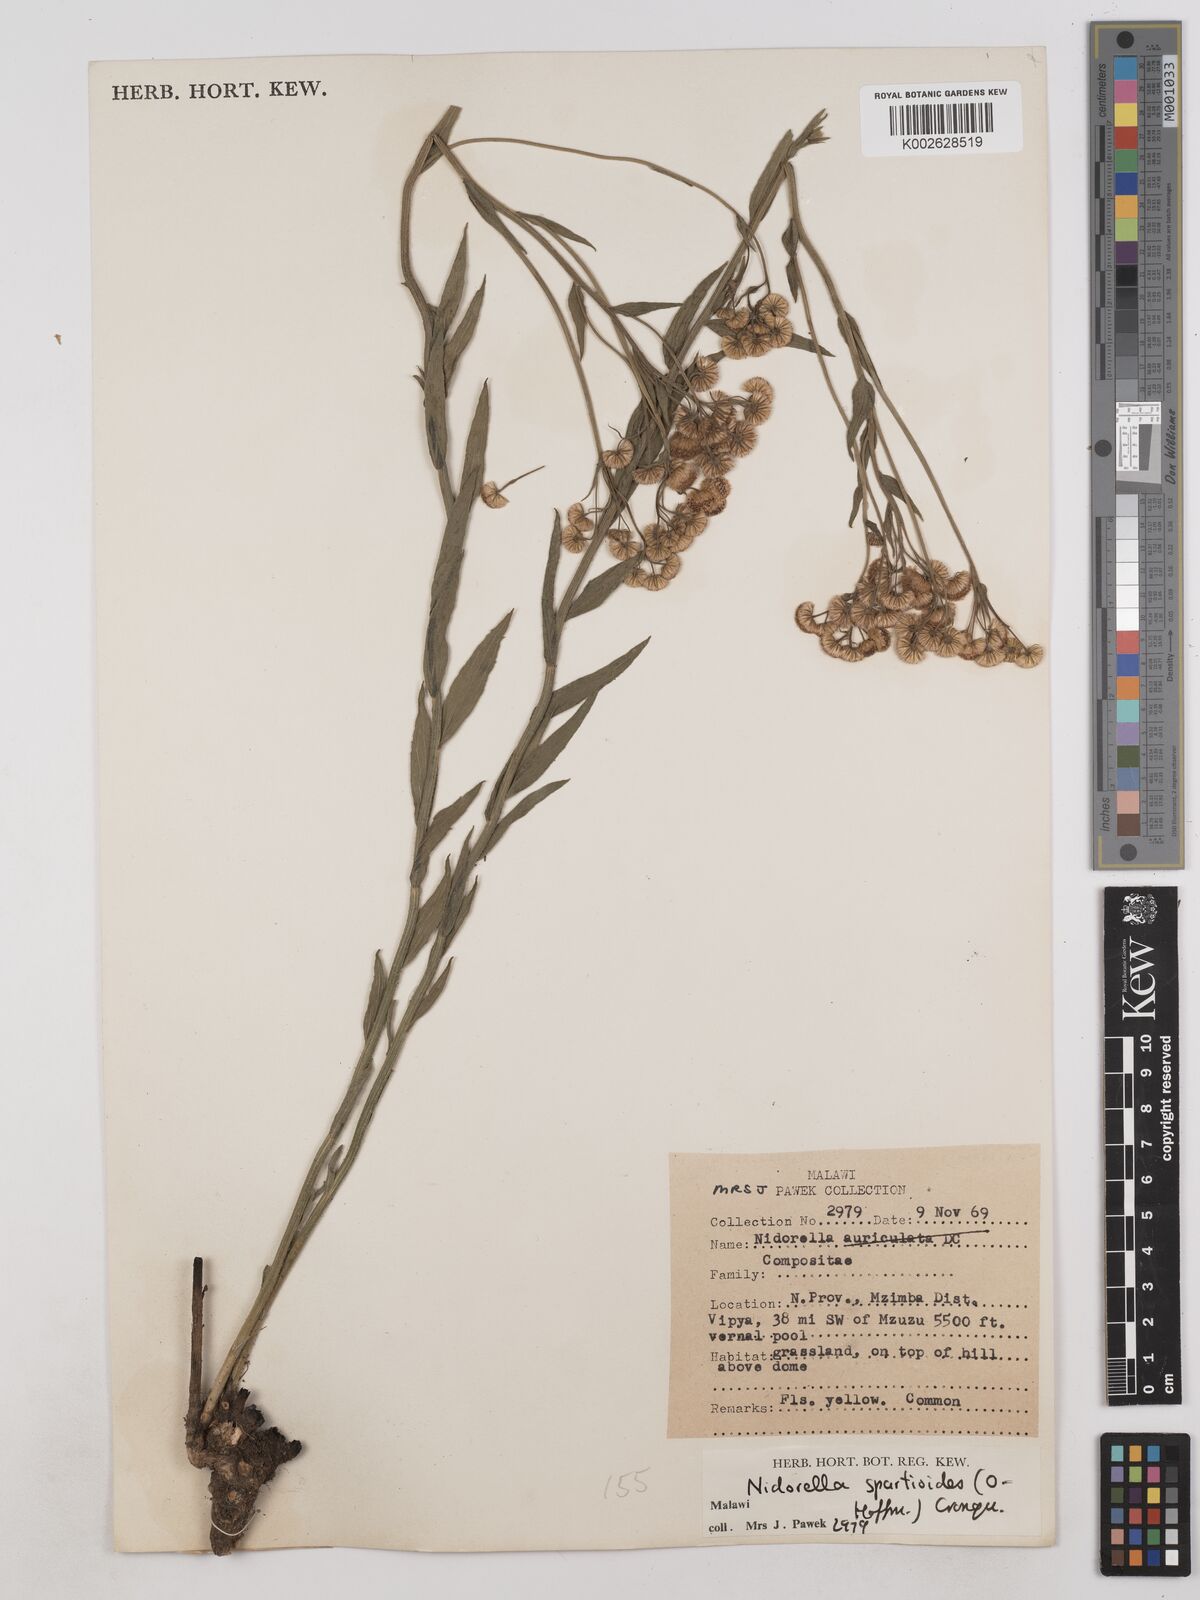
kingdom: Plantae
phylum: Tracheophyta
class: Magnoliopsida
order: Asterales
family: Asteraceae
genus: Nidorella
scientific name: Nidorella spartioides
